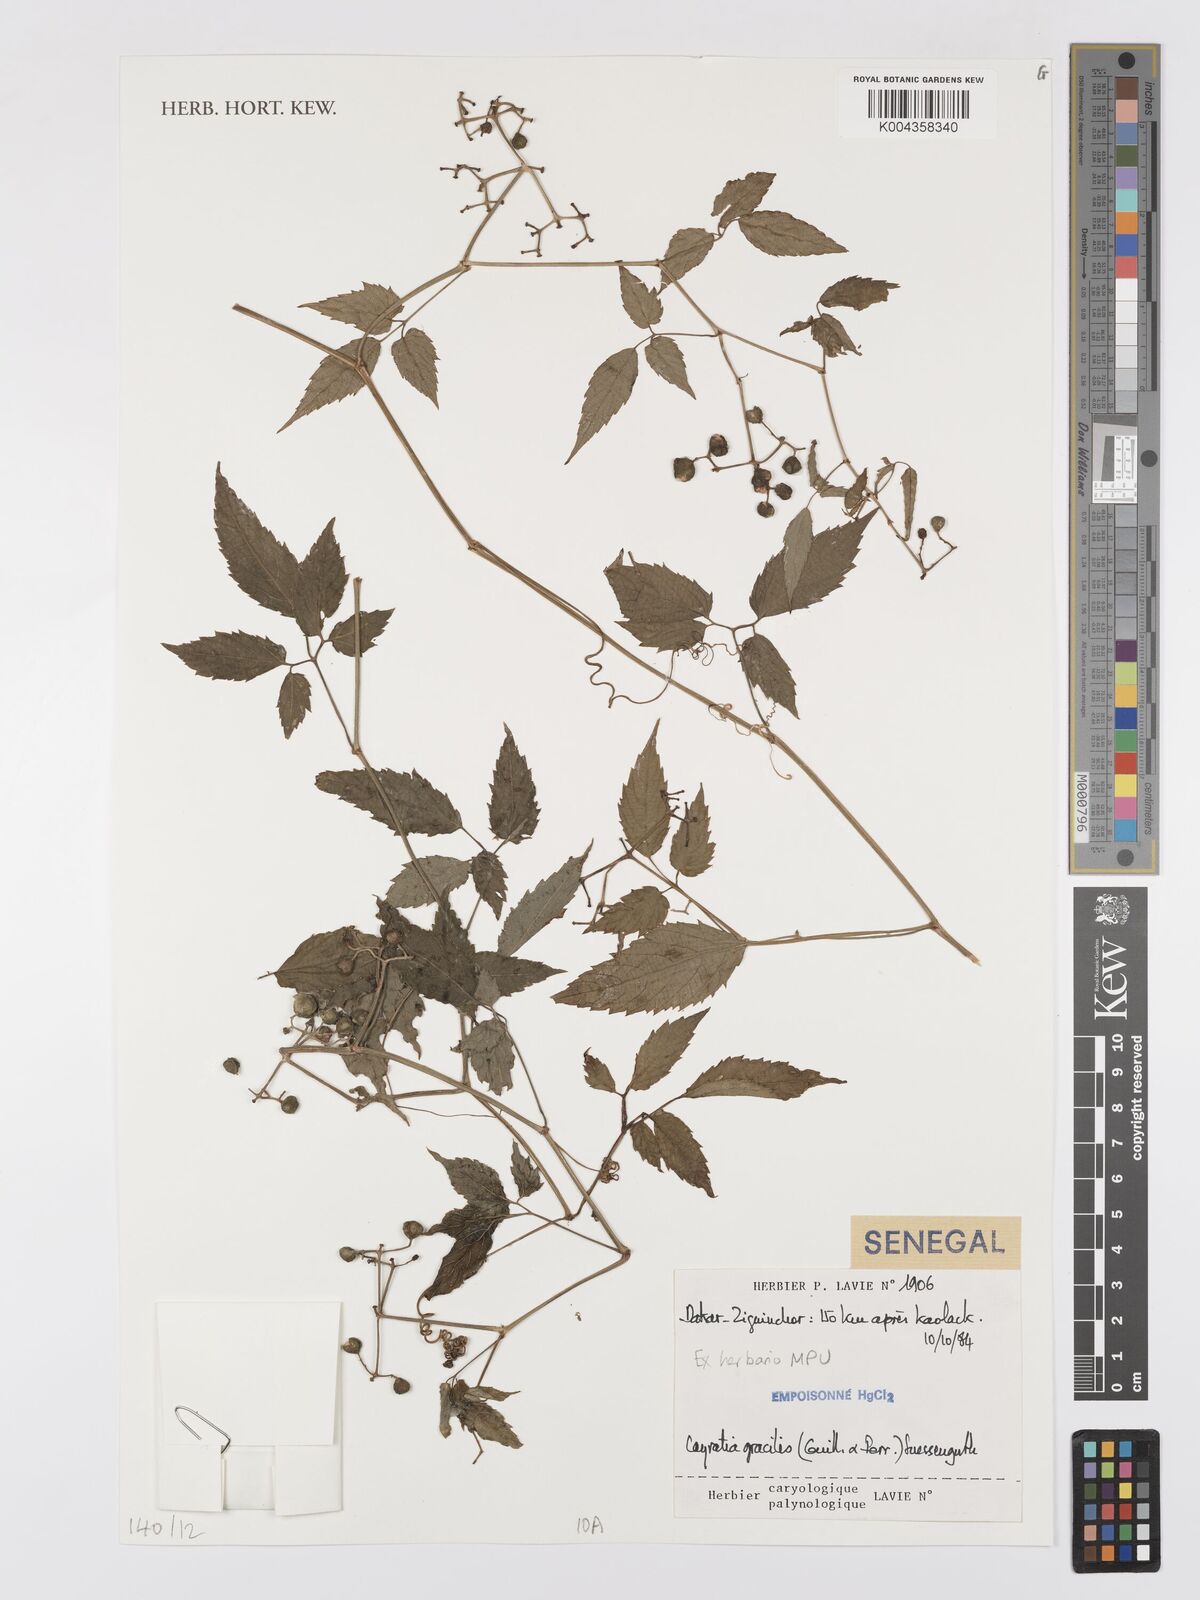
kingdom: Plantae
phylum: Tracheophyta
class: Magnoliopsida
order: Vitales
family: Vitaceae
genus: Afrocayratia
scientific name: Afrocayratia gracilis
